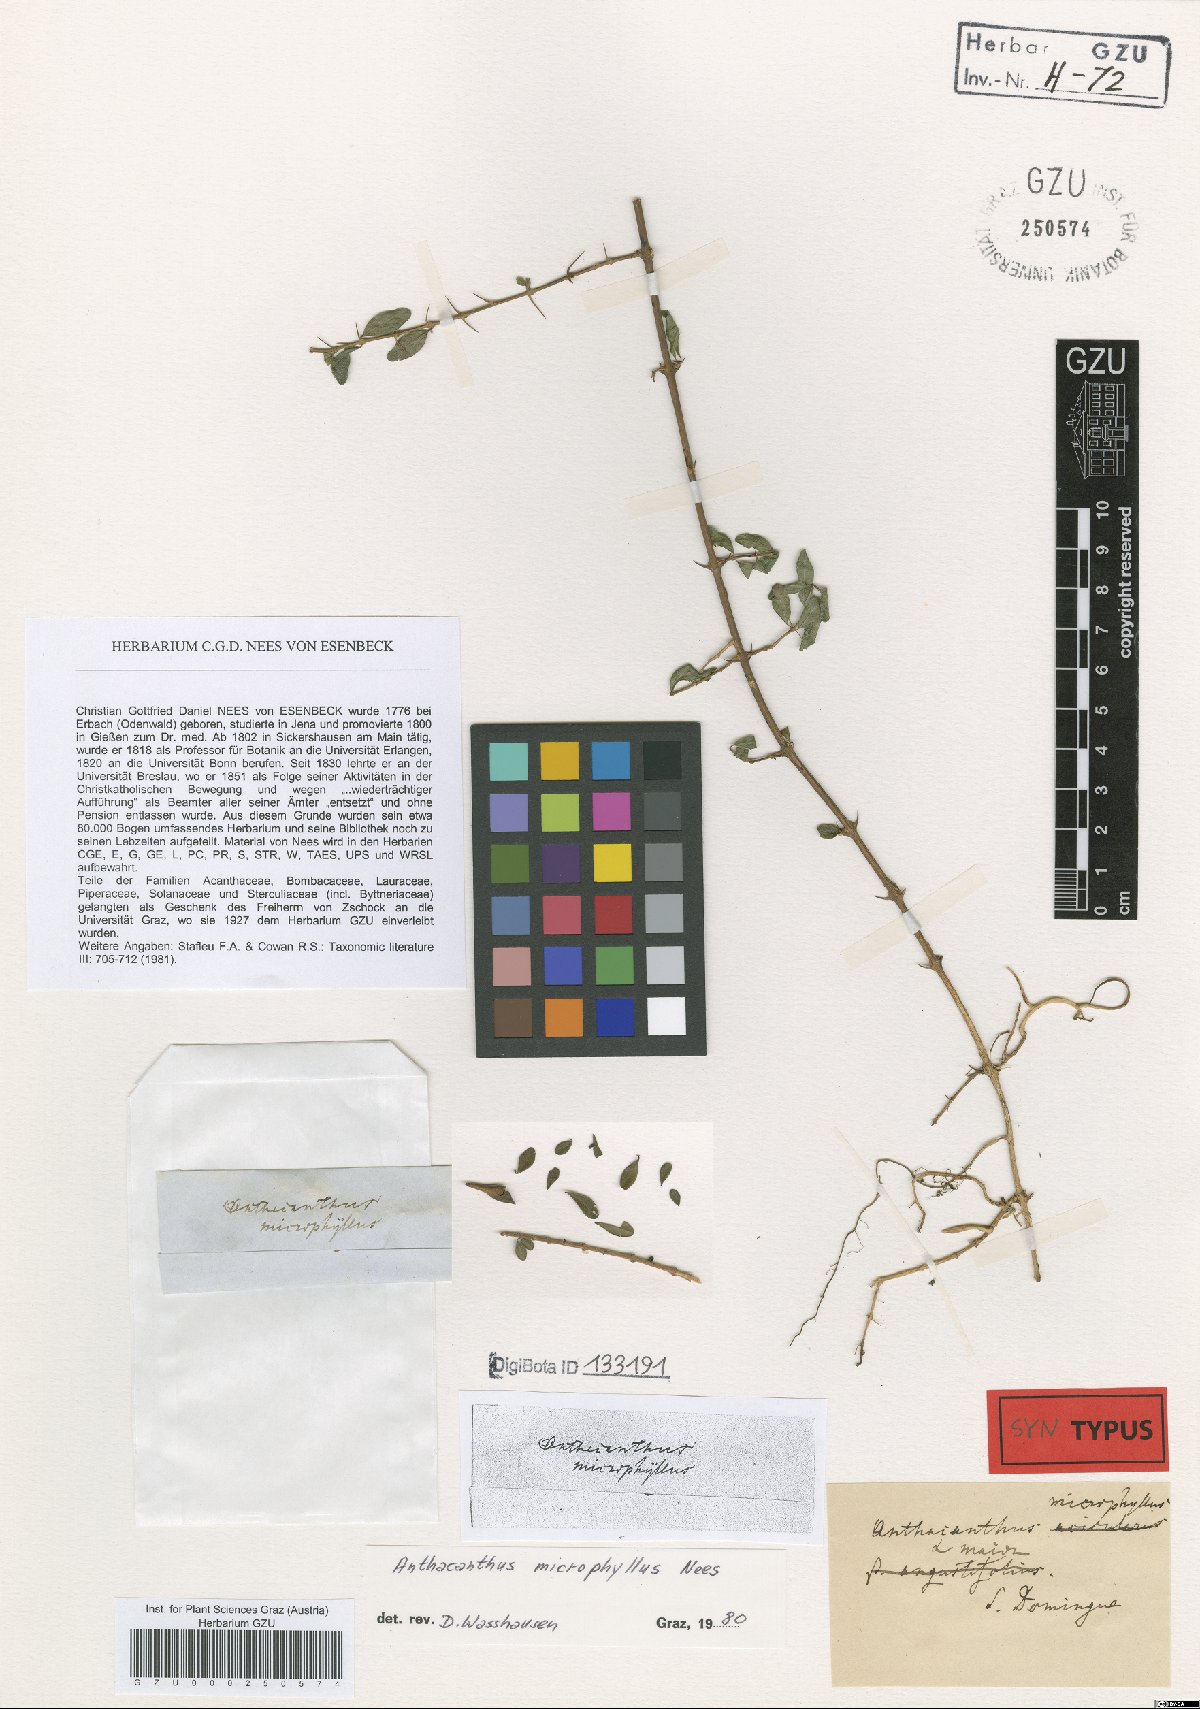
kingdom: Plantae
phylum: Tracheophyta
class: Magnoliopsida
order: Lamiales
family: Acanthaceae
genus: Oplonia
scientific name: Oplonia microphylla
